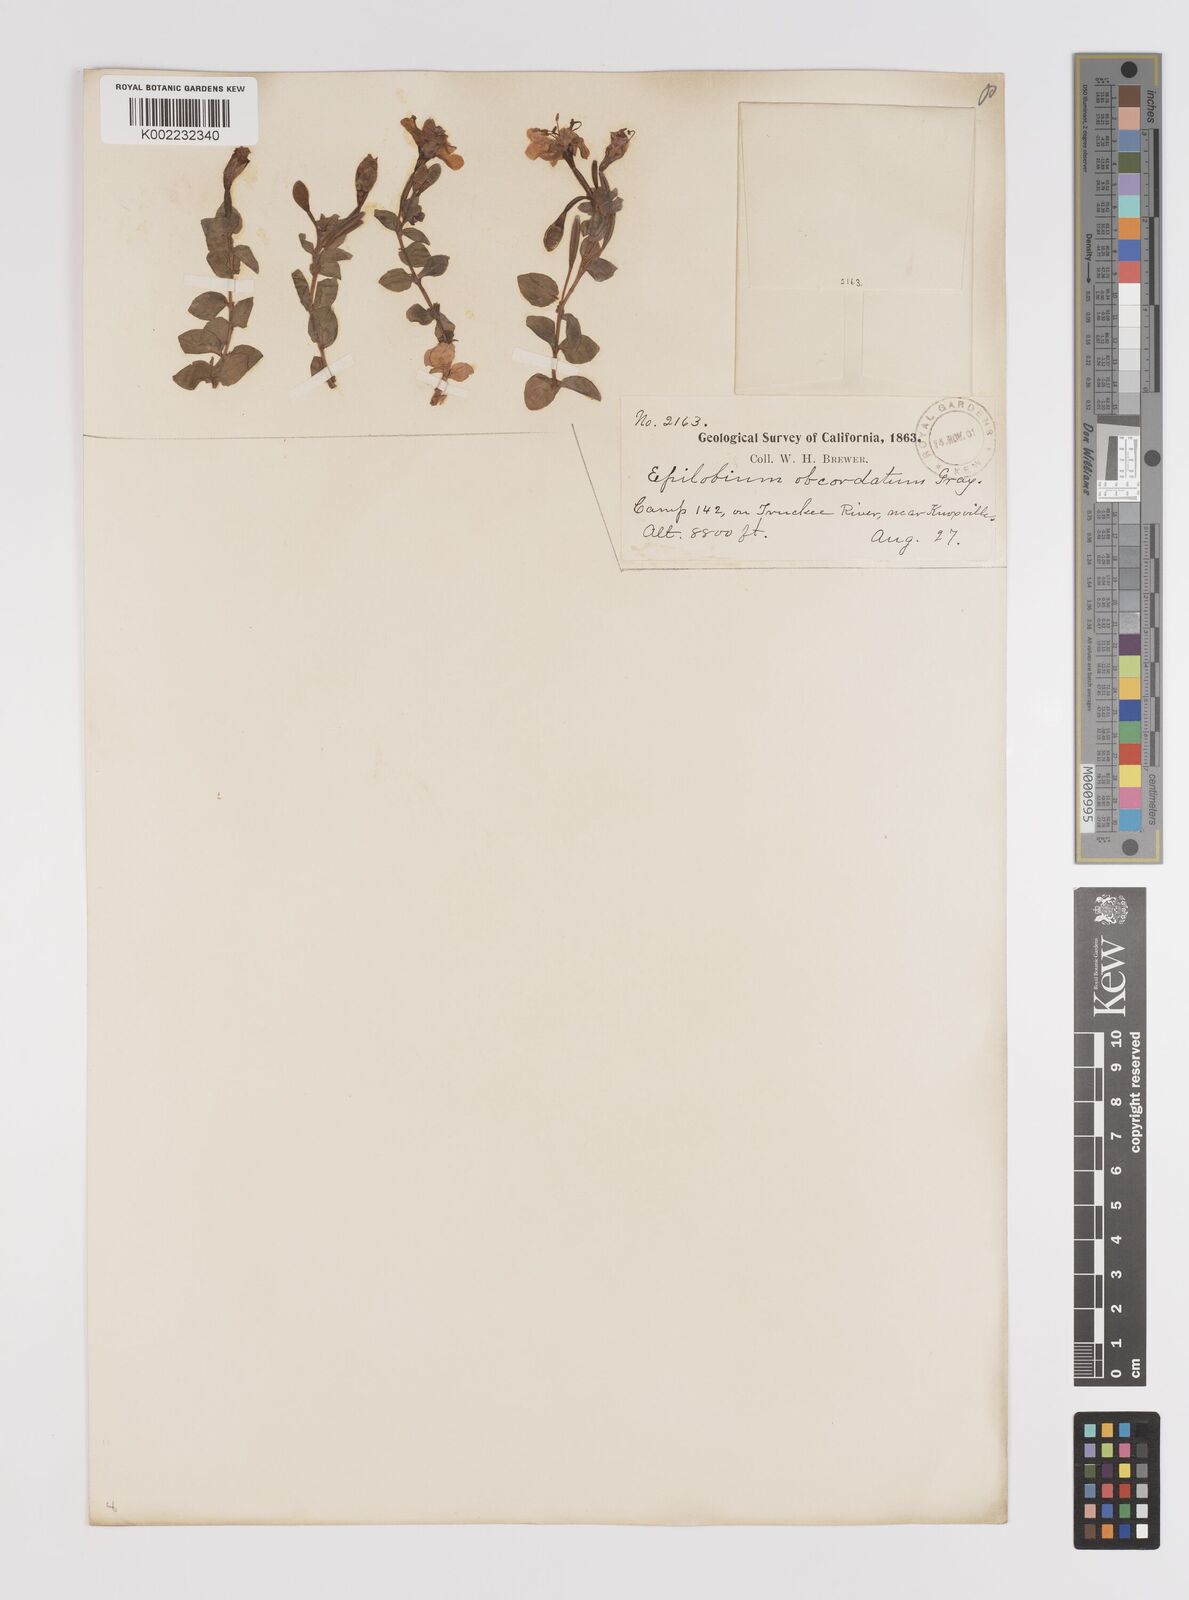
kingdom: Plantae
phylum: Tracheophyta
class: Magnoliopsida
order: Myrtales
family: Onagraceae
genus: Epilobium
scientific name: Epilobium obcordatum
